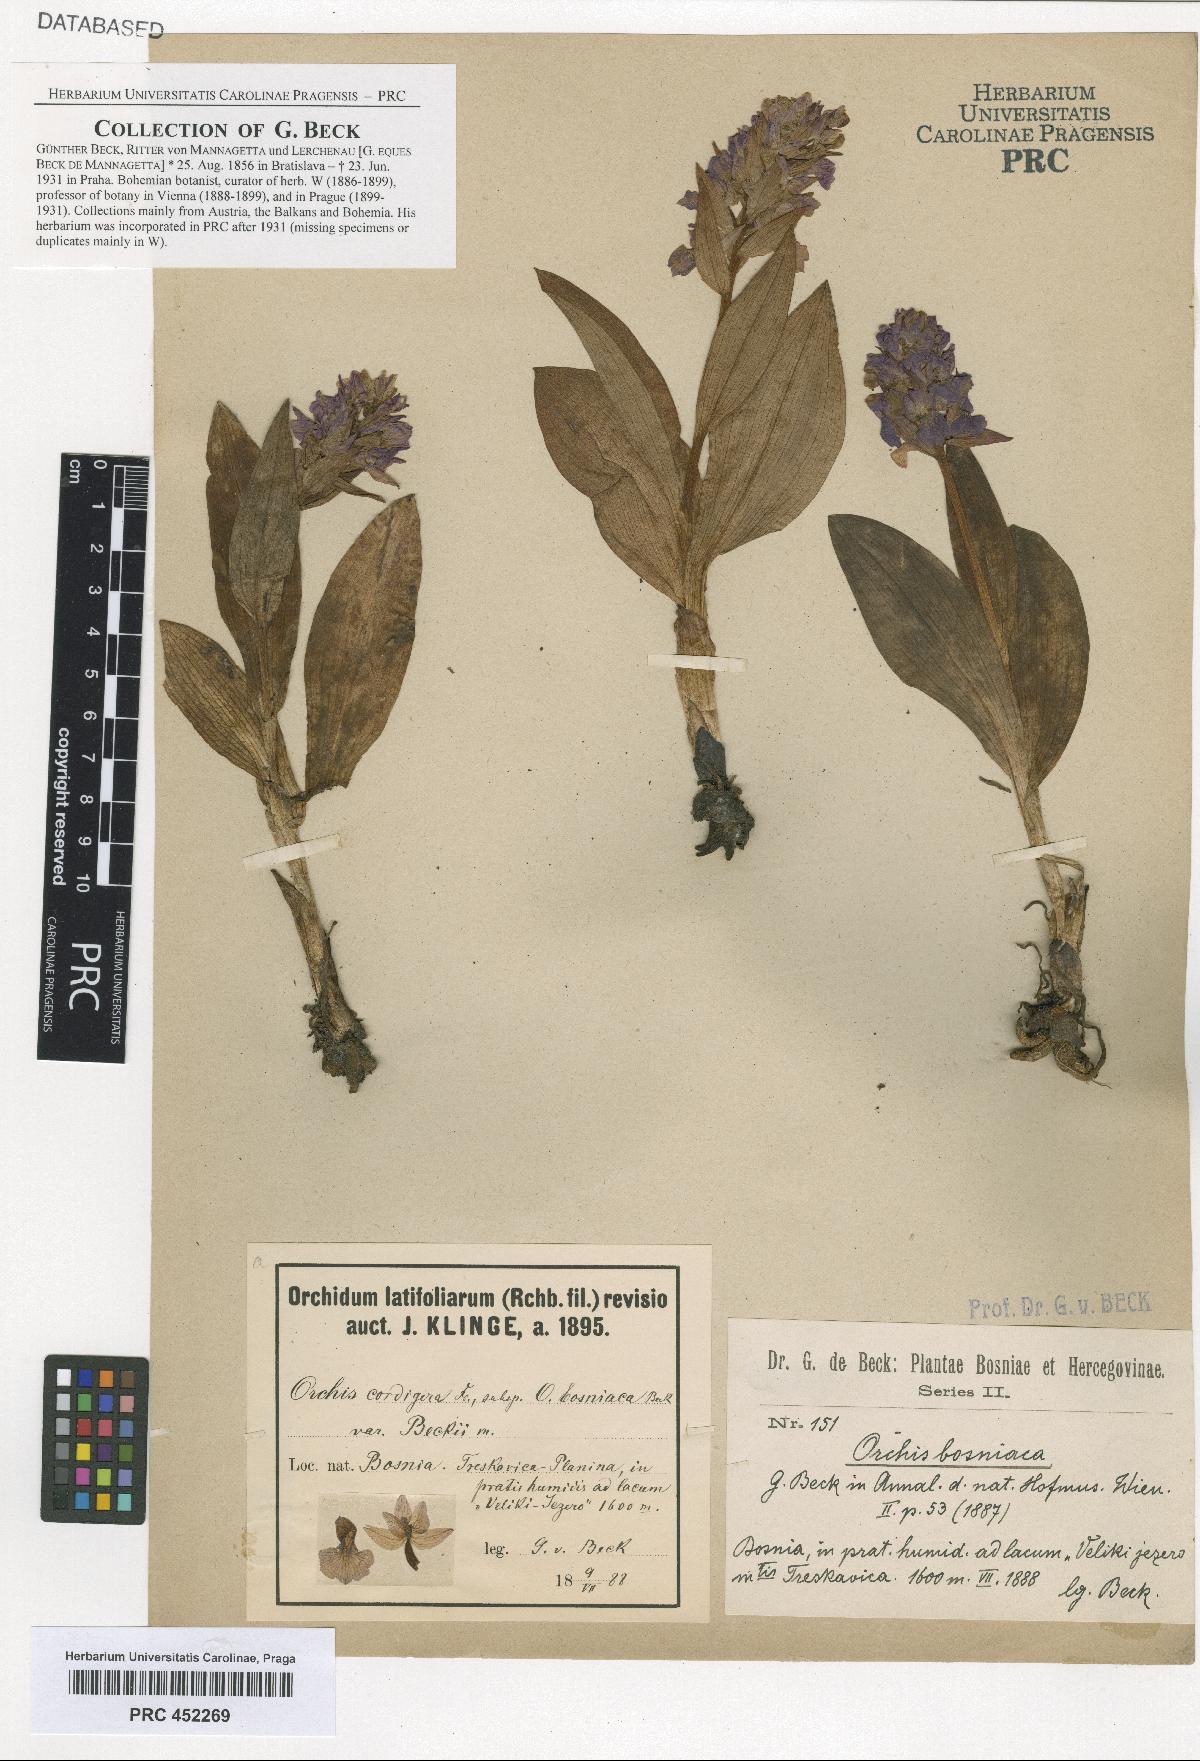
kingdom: Plantae
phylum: Tracheophyta
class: Liliopsida
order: Asparagales
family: Orchidaceae
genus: Dactylorhiza
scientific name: Dactylorhiza majalis
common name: Marsh orchid
